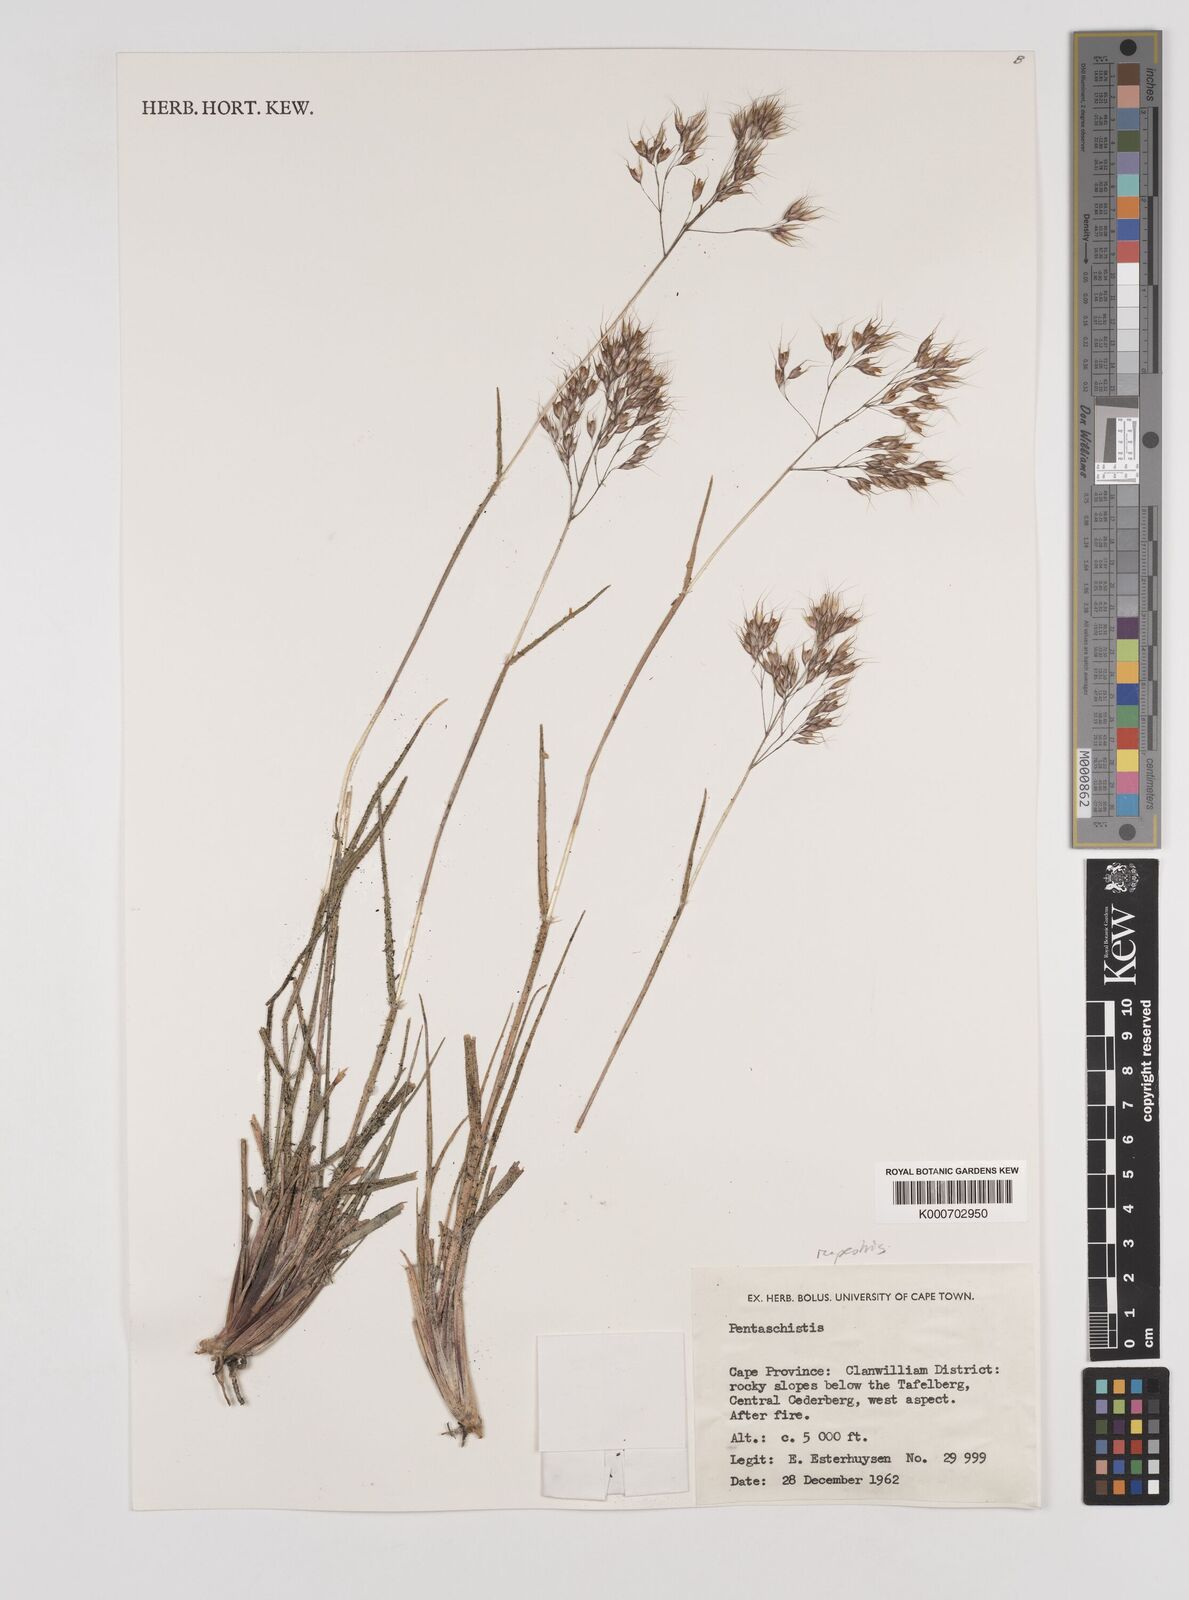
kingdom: Plantae
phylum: Tracheophyta
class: Liliopsida
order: Poales
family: Poaceae
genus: Pentameris
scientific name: Pentameris rupestris
